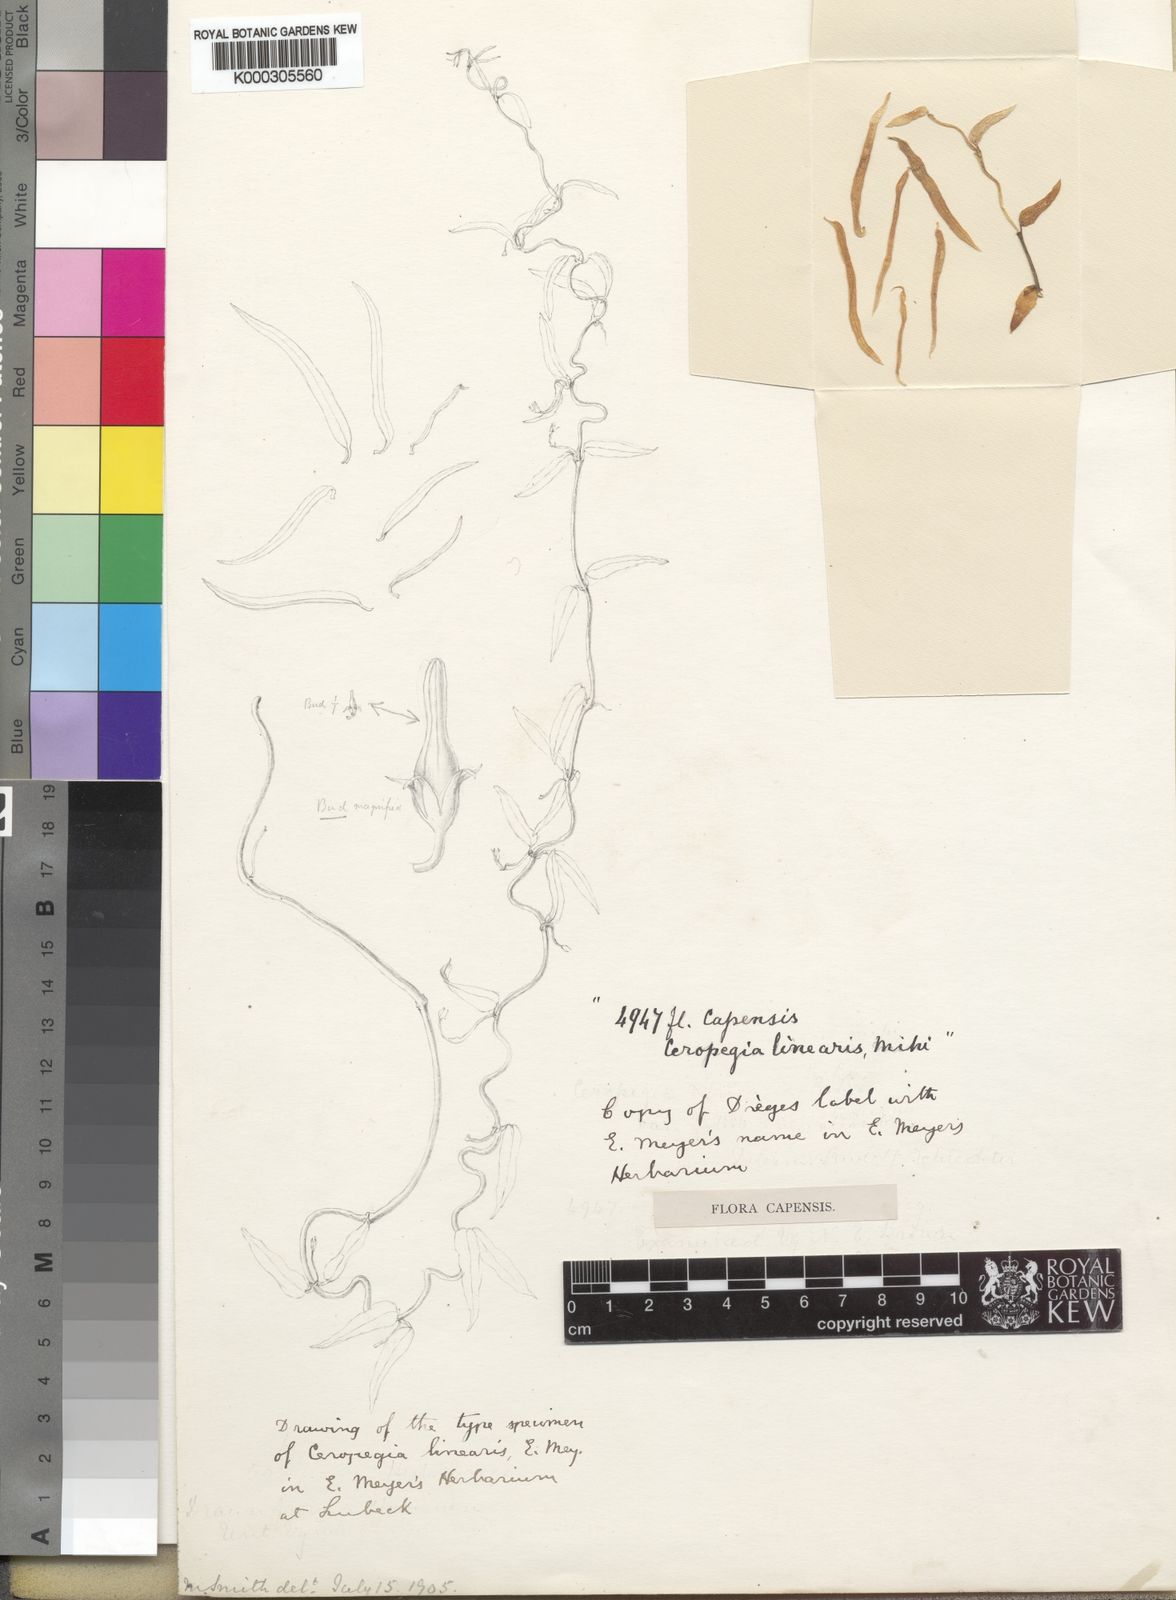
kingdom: Plantae
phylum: Tracheophyta
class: Magnoliopsida
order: Gentianales
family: Apocynaceae
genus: Ceropegia
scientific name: Ceropegia linearis
